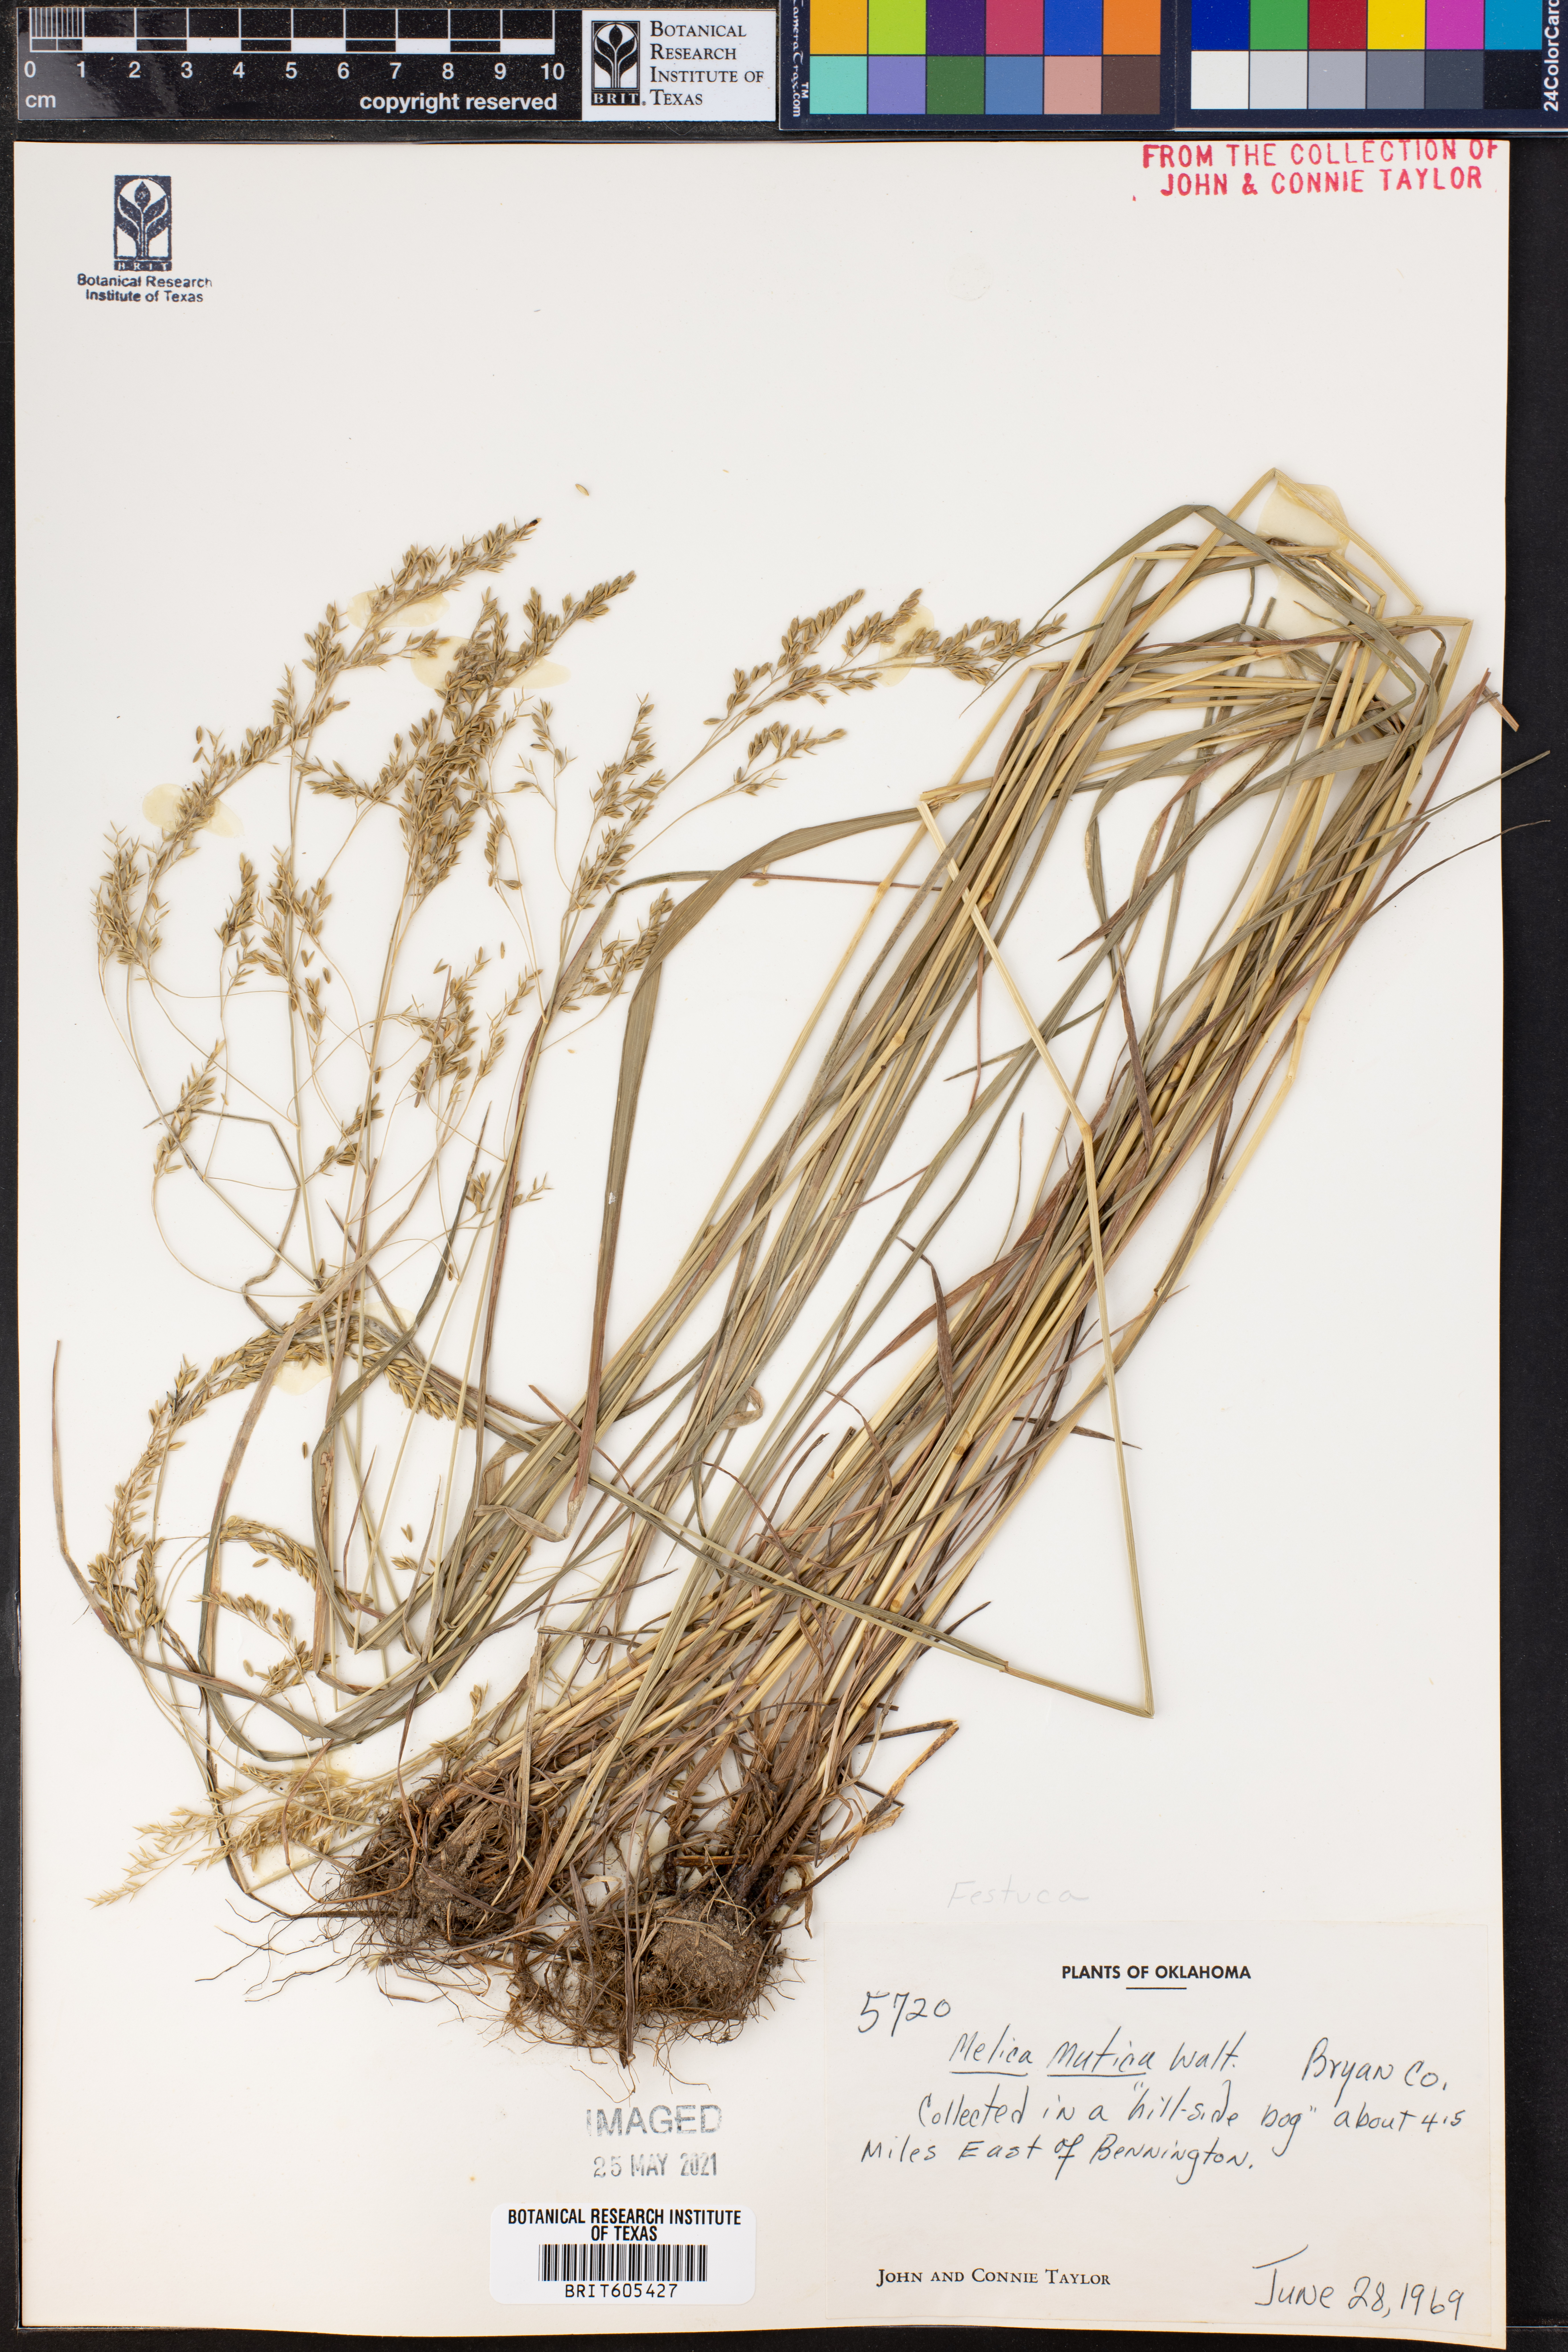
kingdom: Plantae
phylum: Tracheophyta
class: Liliopsida
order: Poales
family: Poaceae
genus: Melica
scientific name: Melica mutica
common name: Two-flower melic
